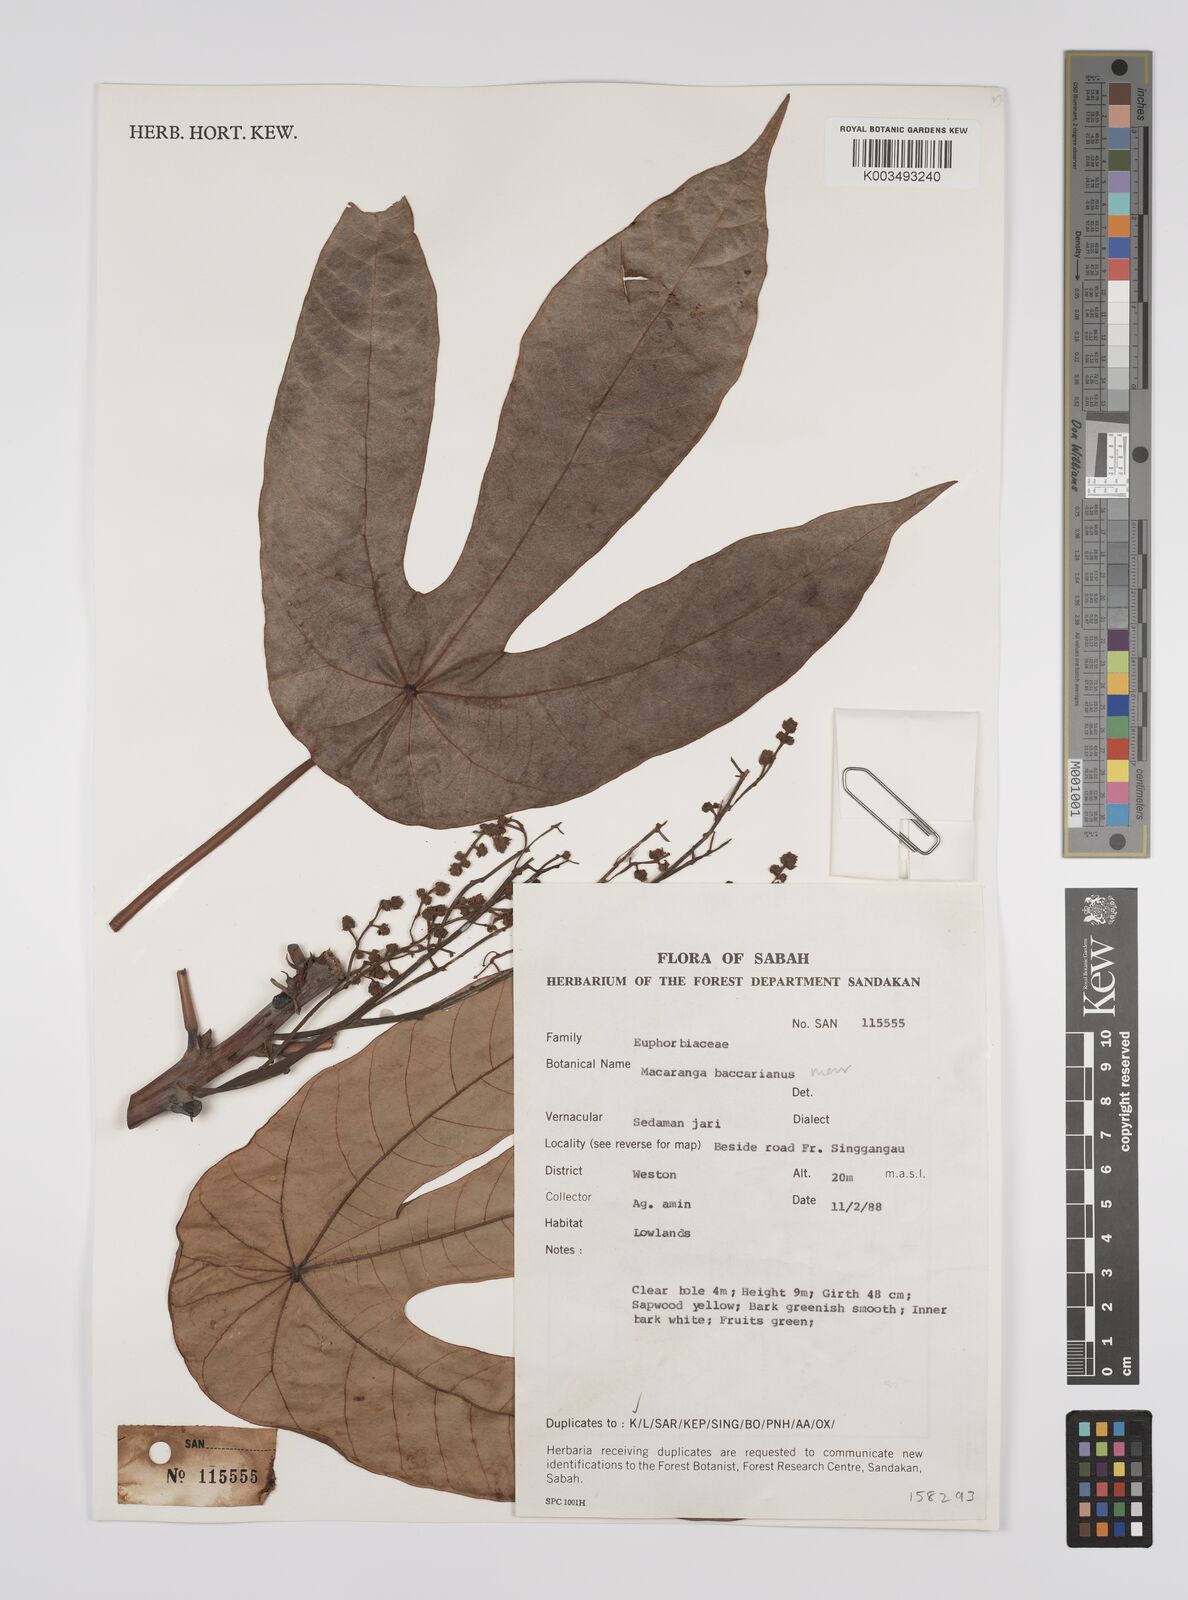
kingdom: Plantae
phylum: Tracheophyta
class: Magnoliopsida
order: Malpighiales
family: Euphorbiaceae
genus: Macaranga
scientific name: Macaranga beccariana
